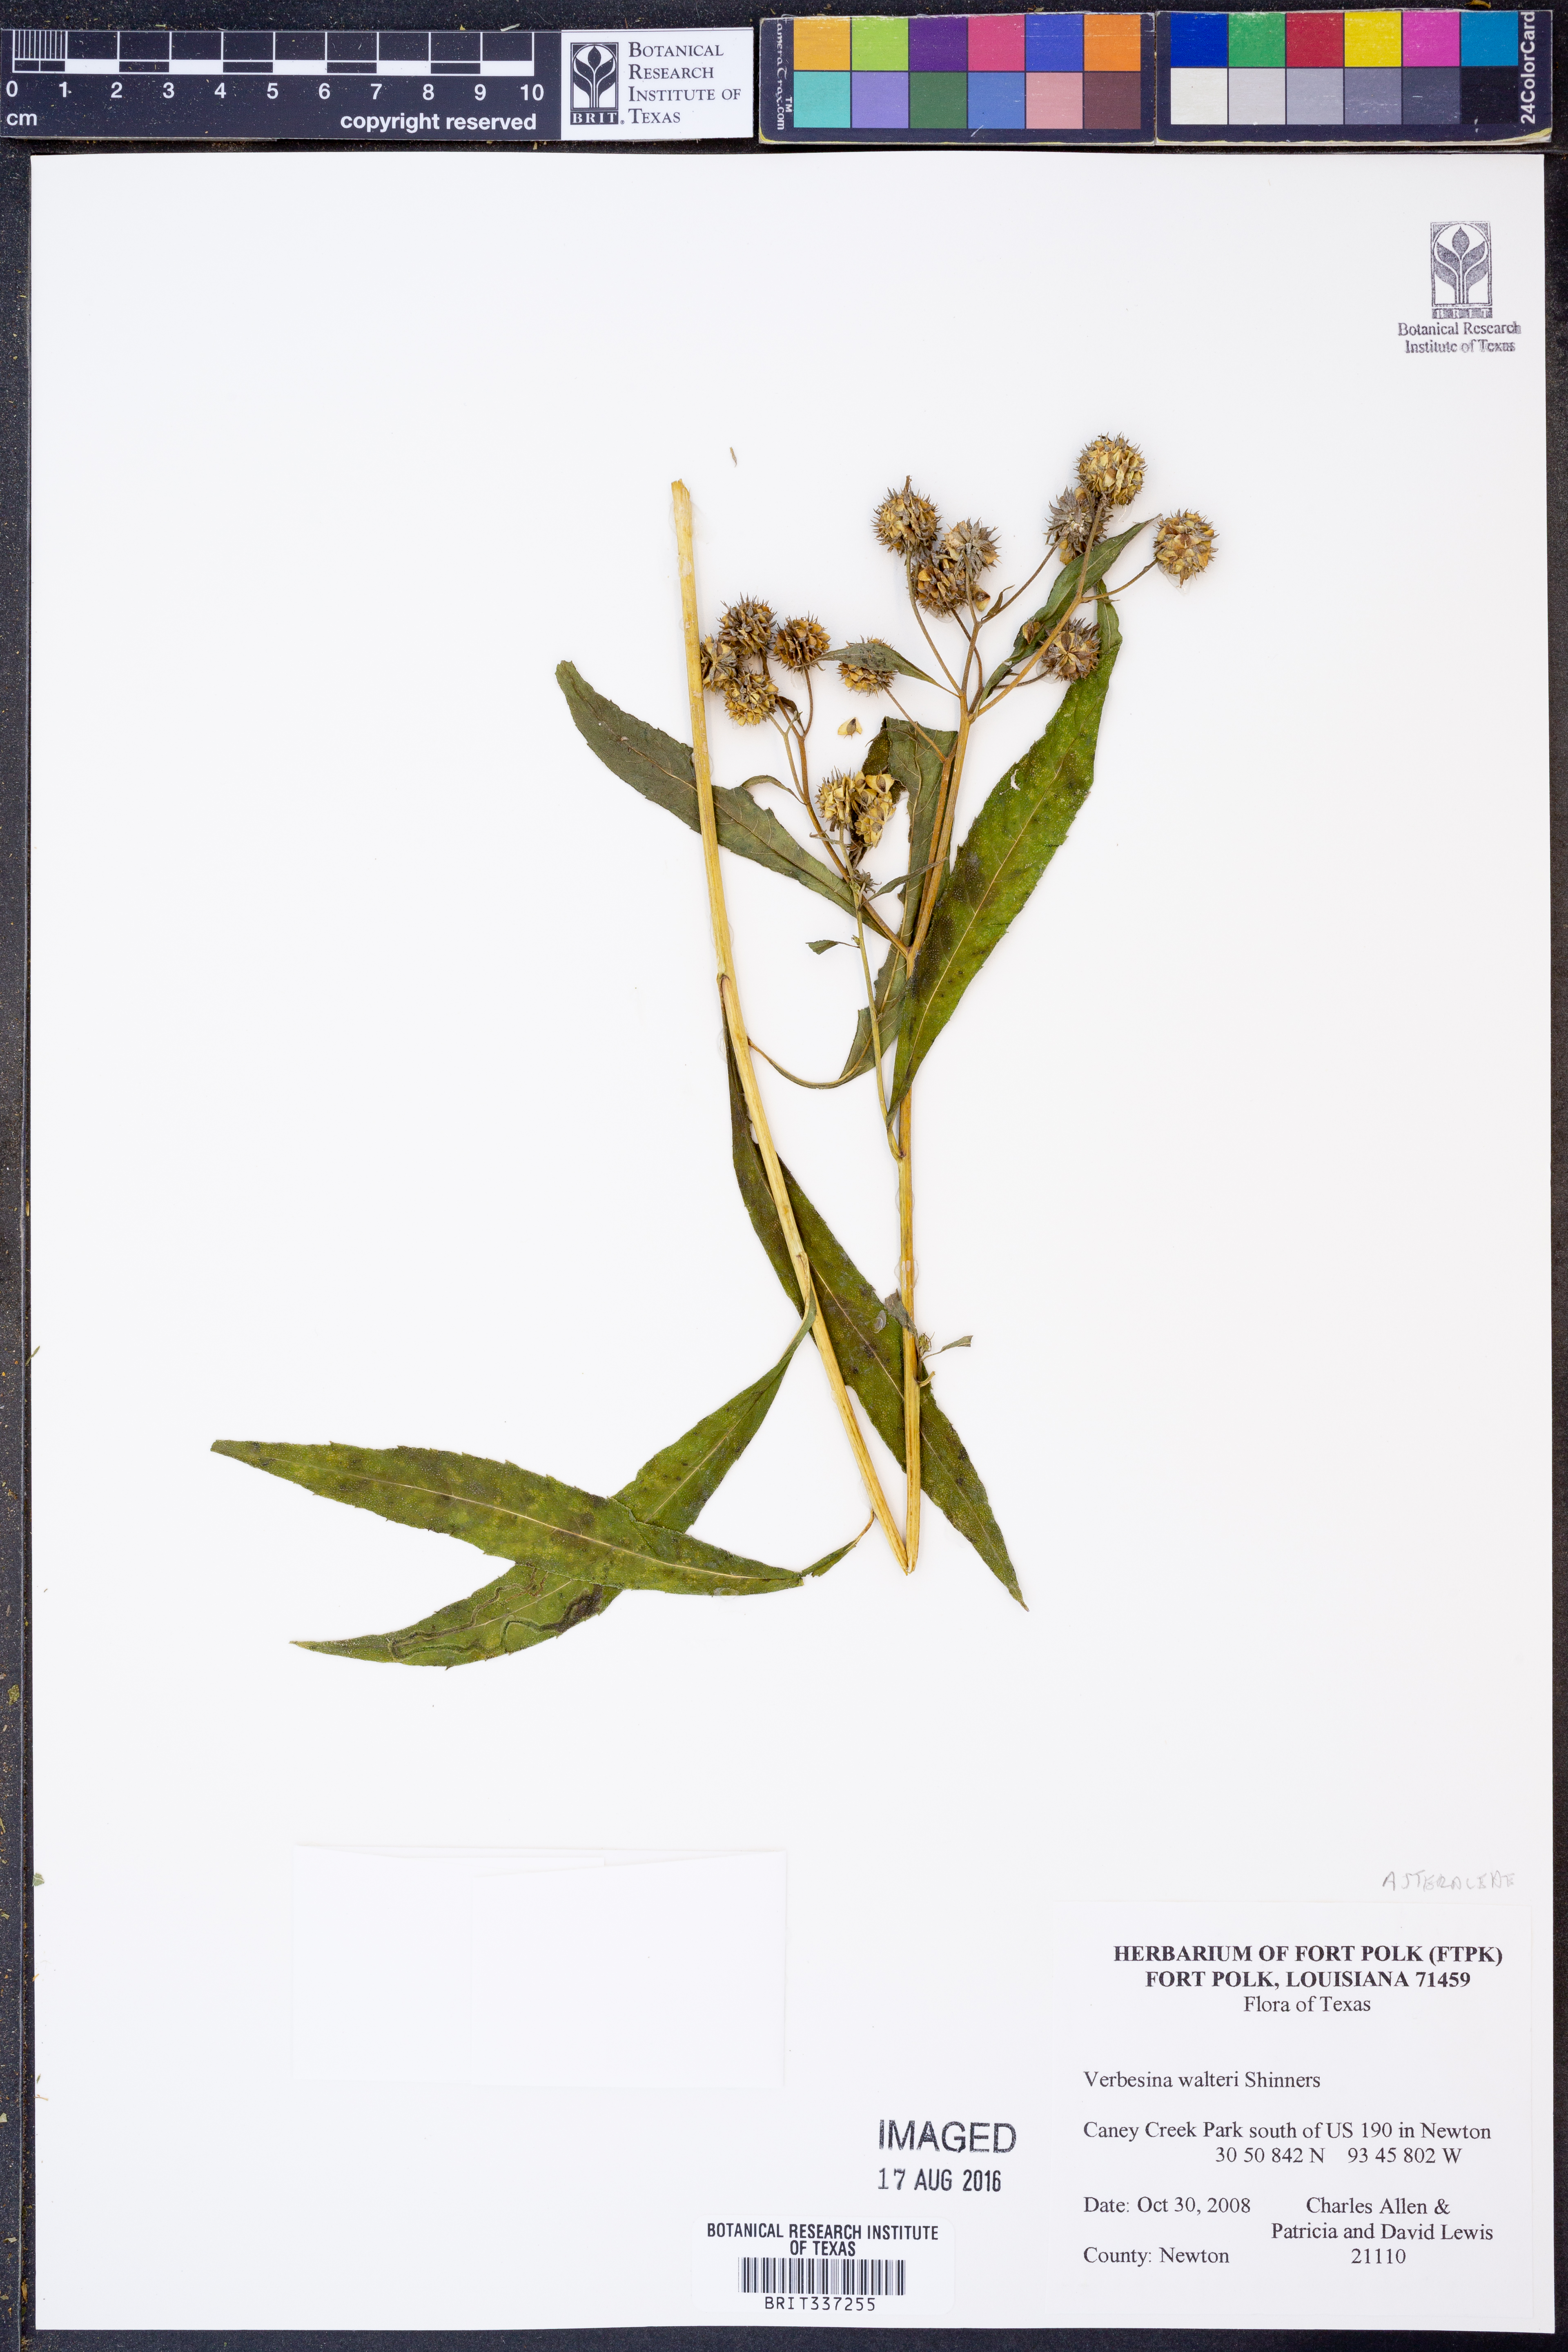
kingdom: Plantae
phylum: Tracheophyta
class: Magnoliopsida
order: Asterales
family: Asteraceae
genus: Verbesina
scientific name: Verbesina walteri
